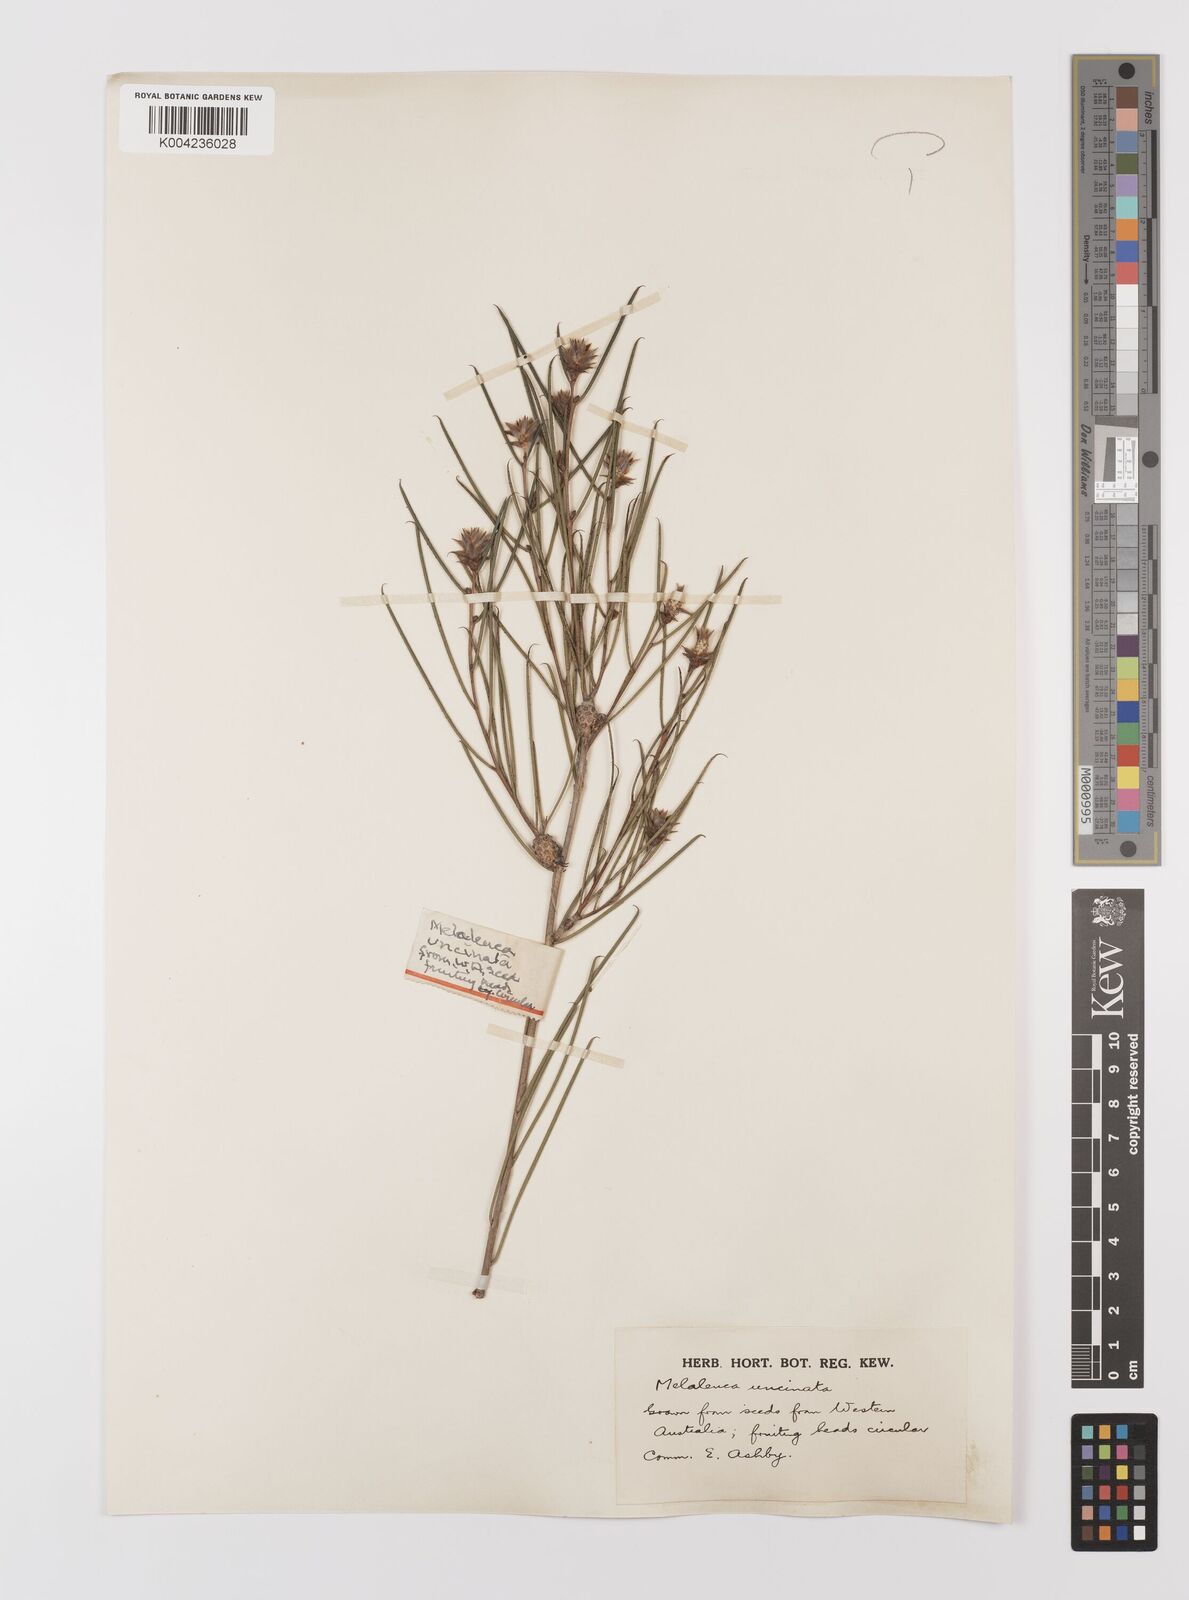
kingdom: Plantae
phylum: Tracheophyta
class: Magnoliopsida
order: Myrtales
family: Myrtaceae
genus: Melaleuca
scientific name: Melaleuca uncinata
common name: Broom honey myrtle
